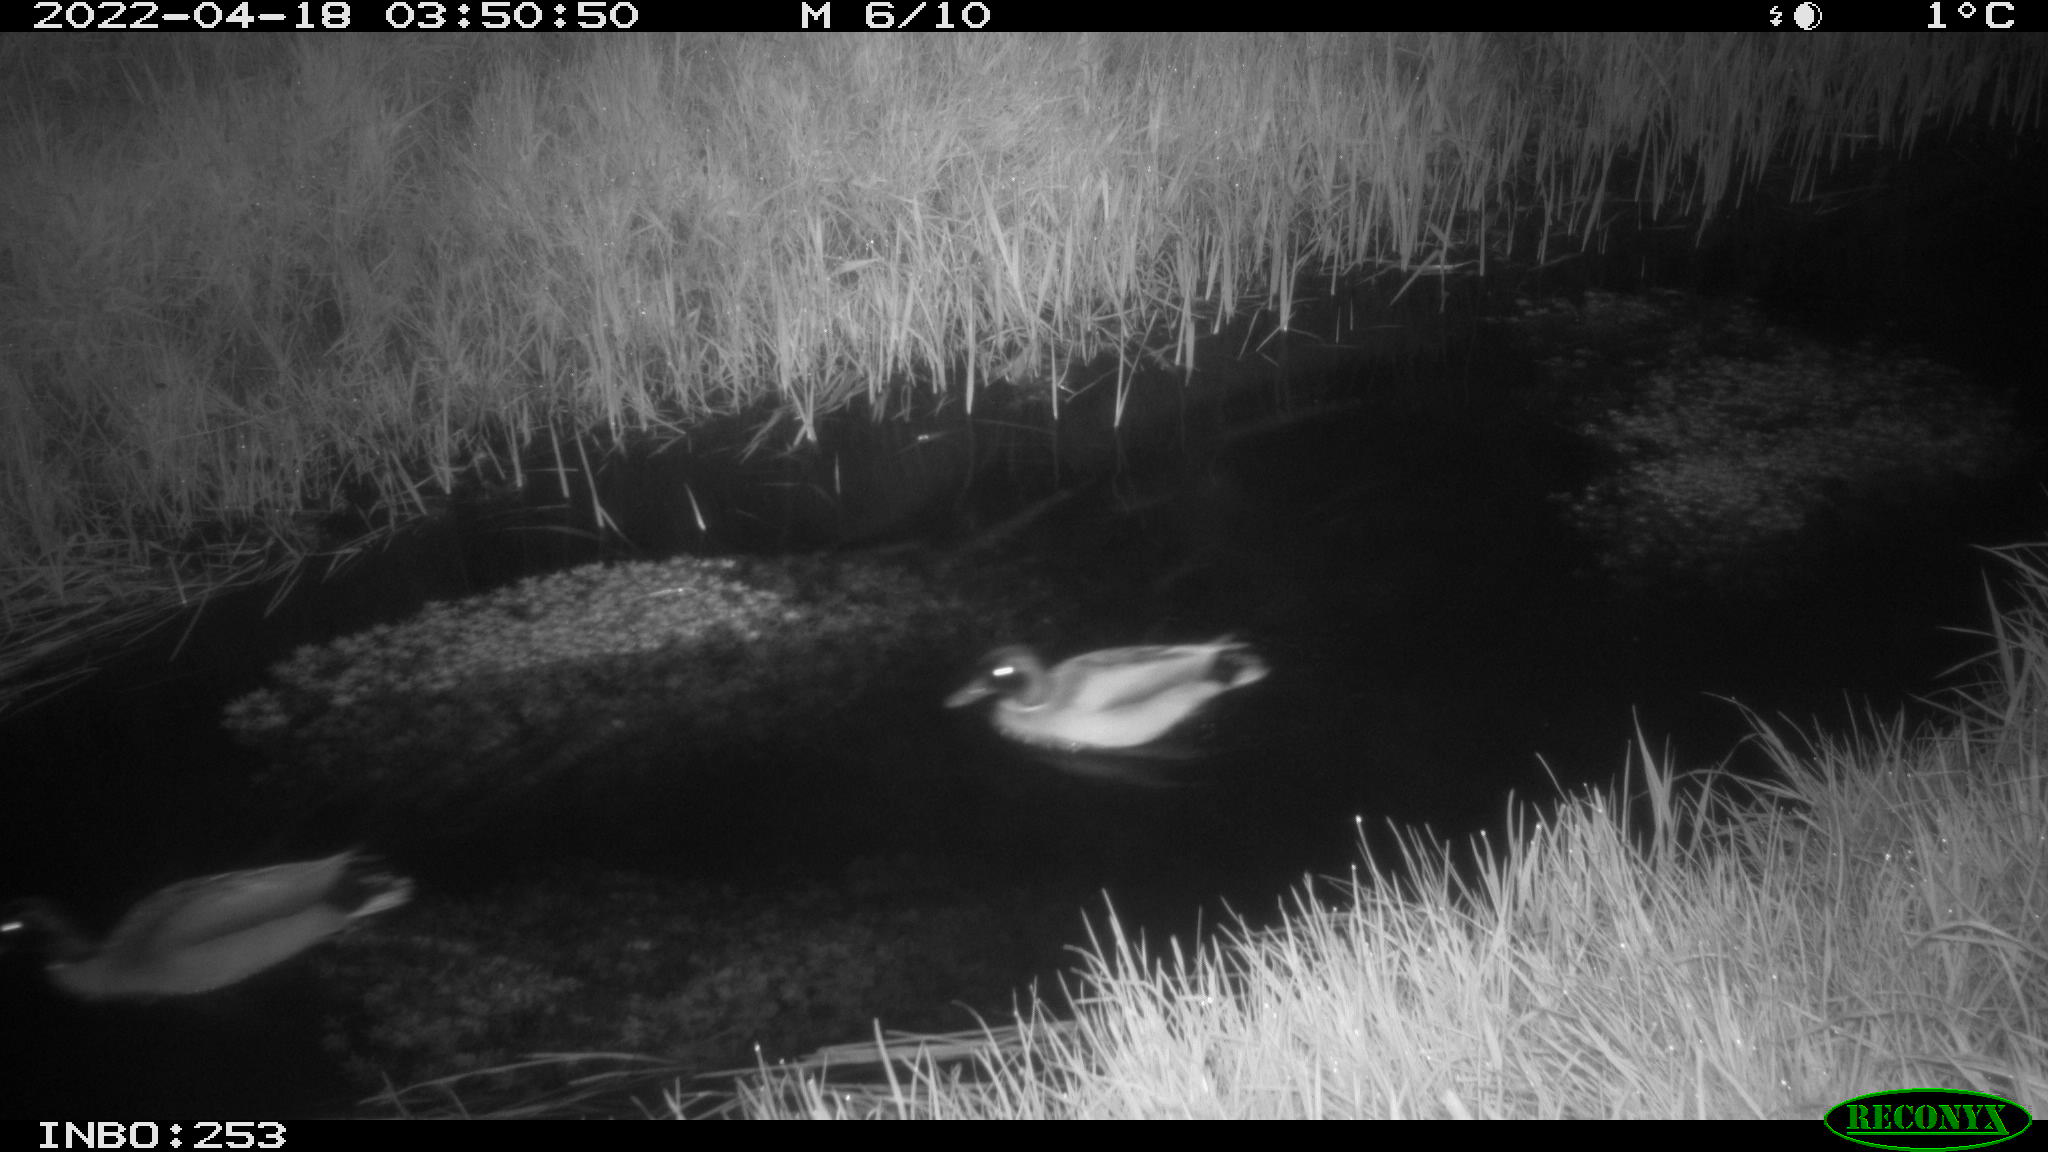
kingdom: Animalia
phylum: Chordata
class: Aves
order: Anseriformes
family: Anatidae
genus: Anas
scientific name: Anas platyrhynchos
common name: Mallard
